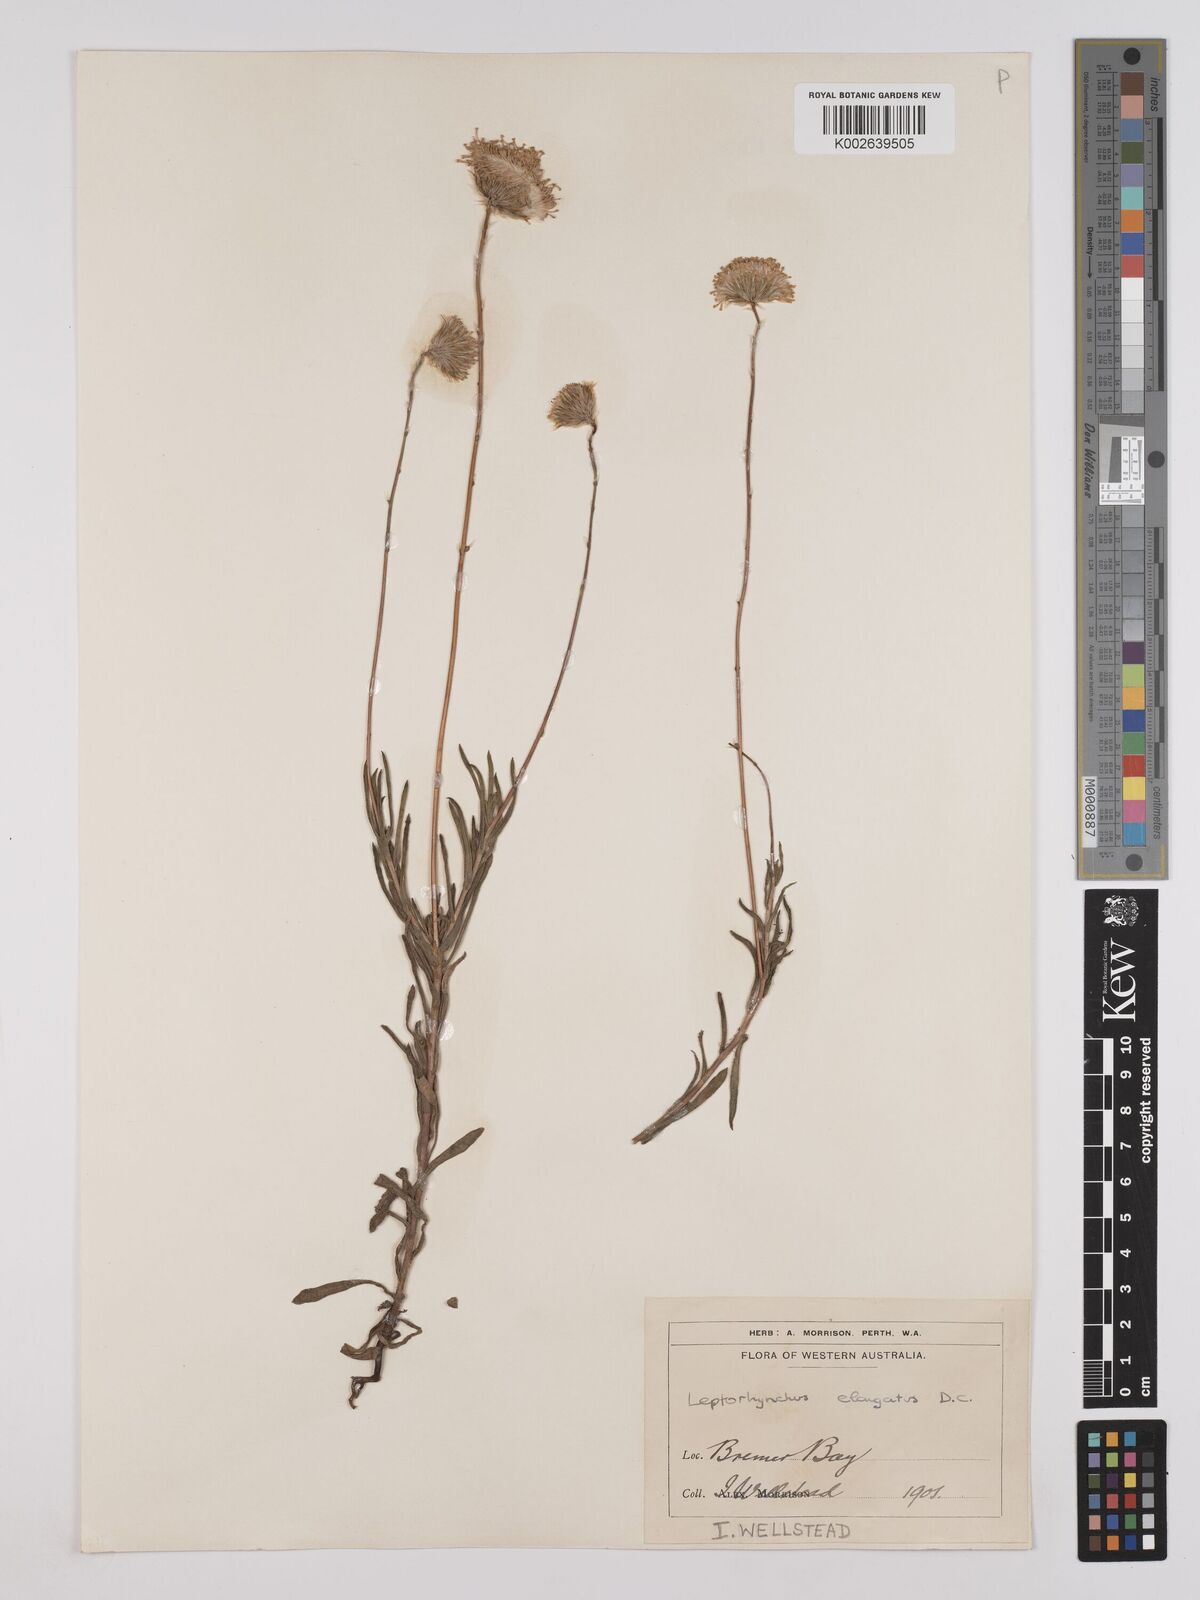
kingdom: Plantae
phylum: Tracheophyta
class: Magnoliopsida
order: Asterales
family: Asteraceae
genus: Leptorhynchos
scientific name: Leptorhynchos elongatus
